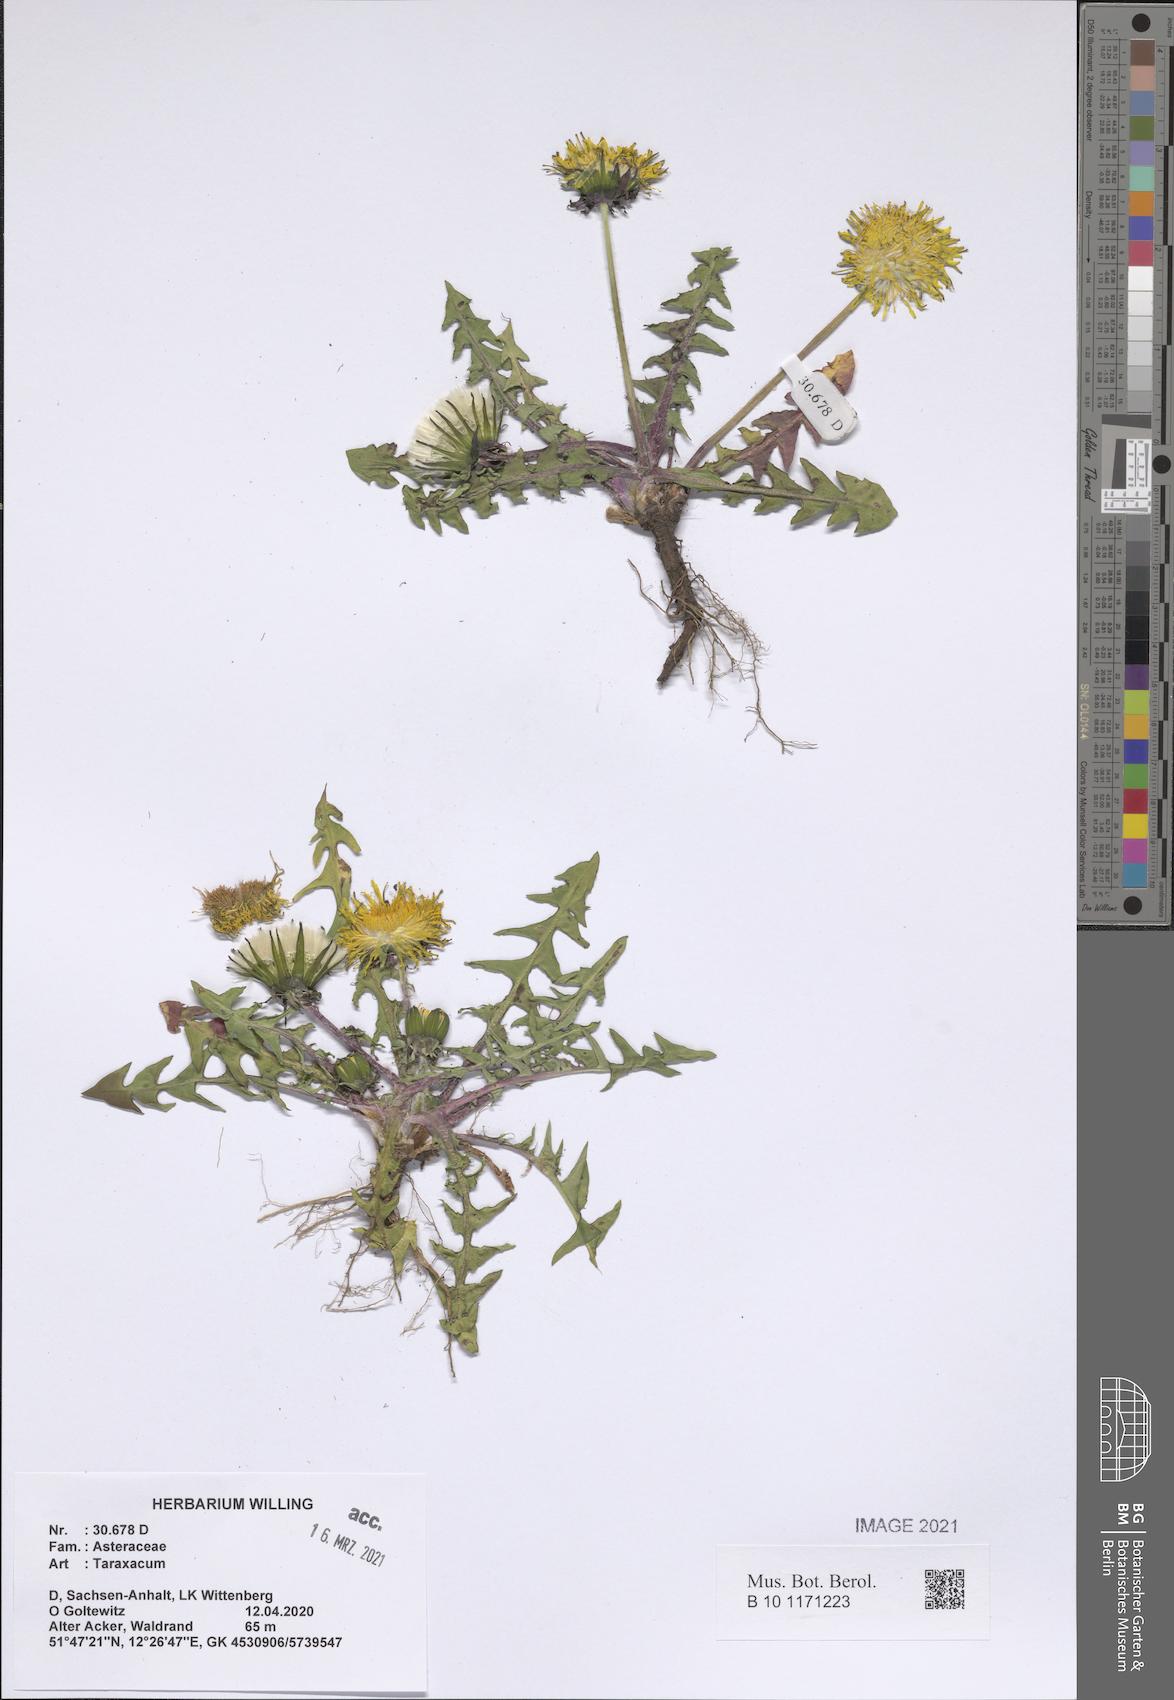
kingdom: Plantae
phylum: Tracheophyta
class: Magnoliopsida
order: Asterales
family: Asteraceae
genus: Taraxacum
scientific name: Taraxacum
